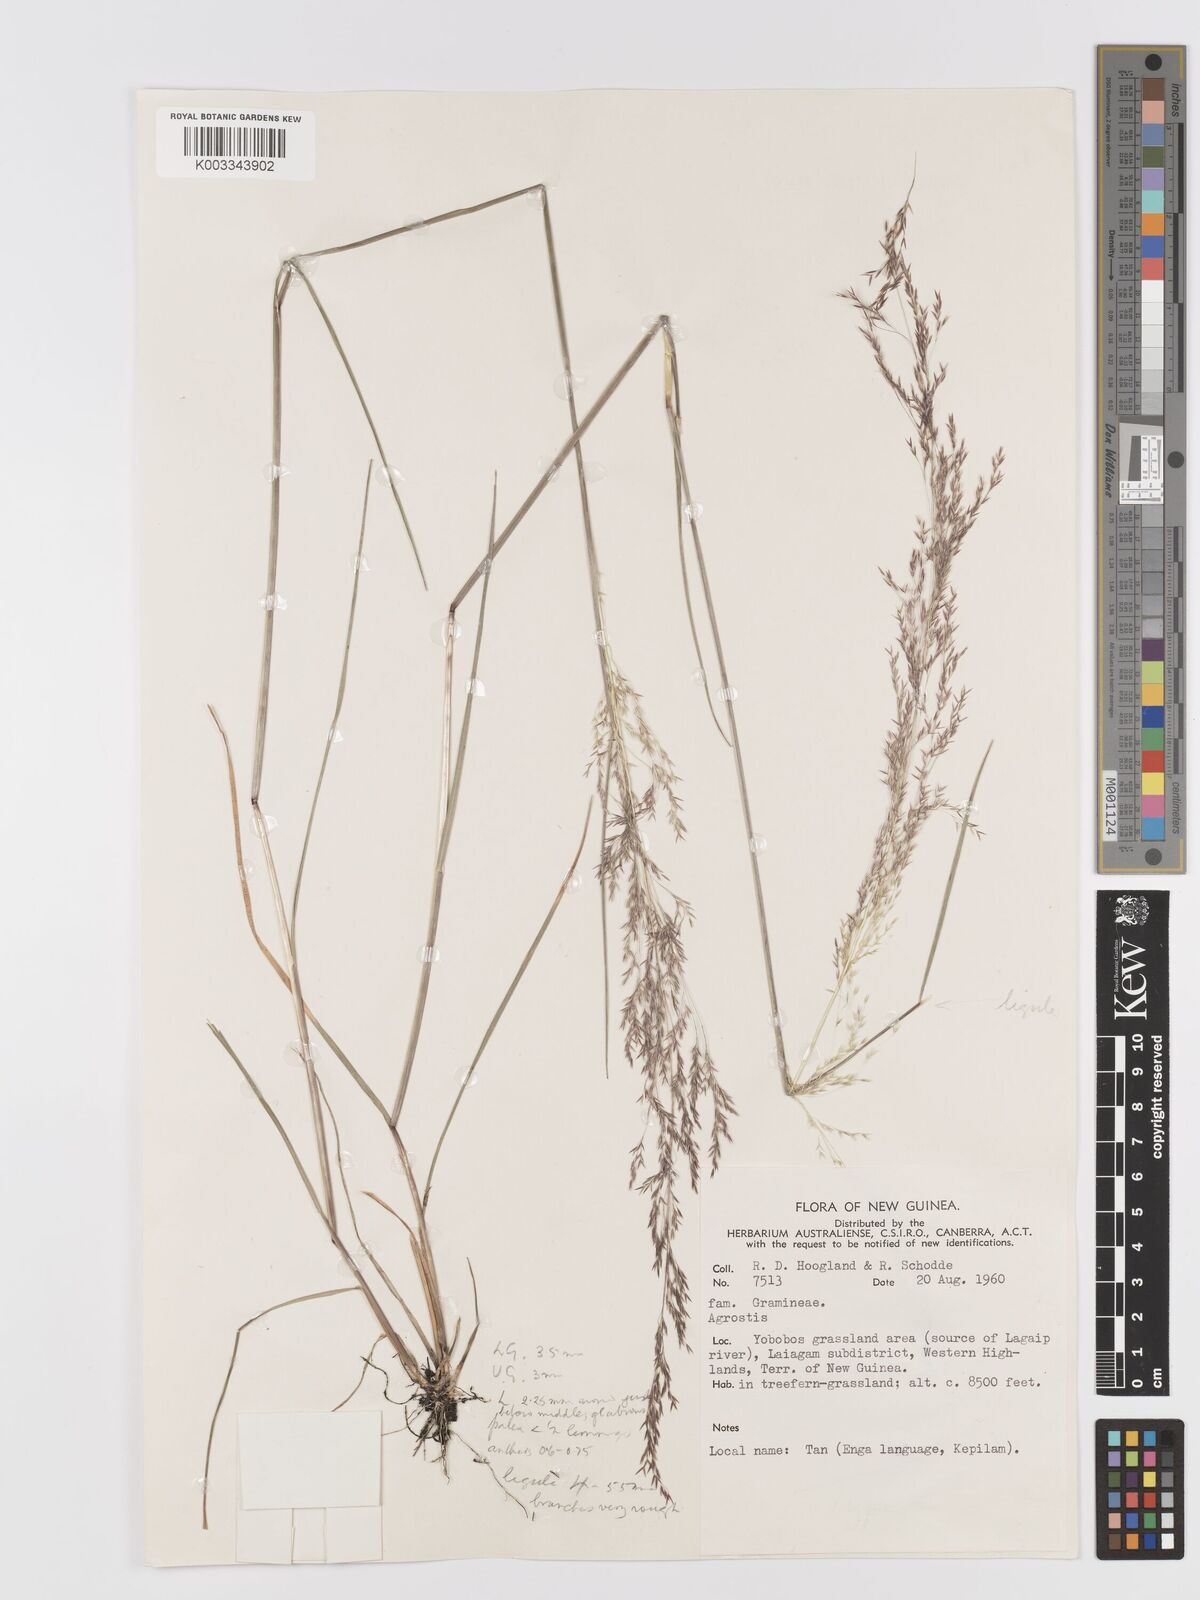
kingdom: Plantae
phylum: Tracheophyta
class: Liliopsida
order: Poales
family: Poaceae
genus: Agrostis
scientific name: Agrostis infirma
